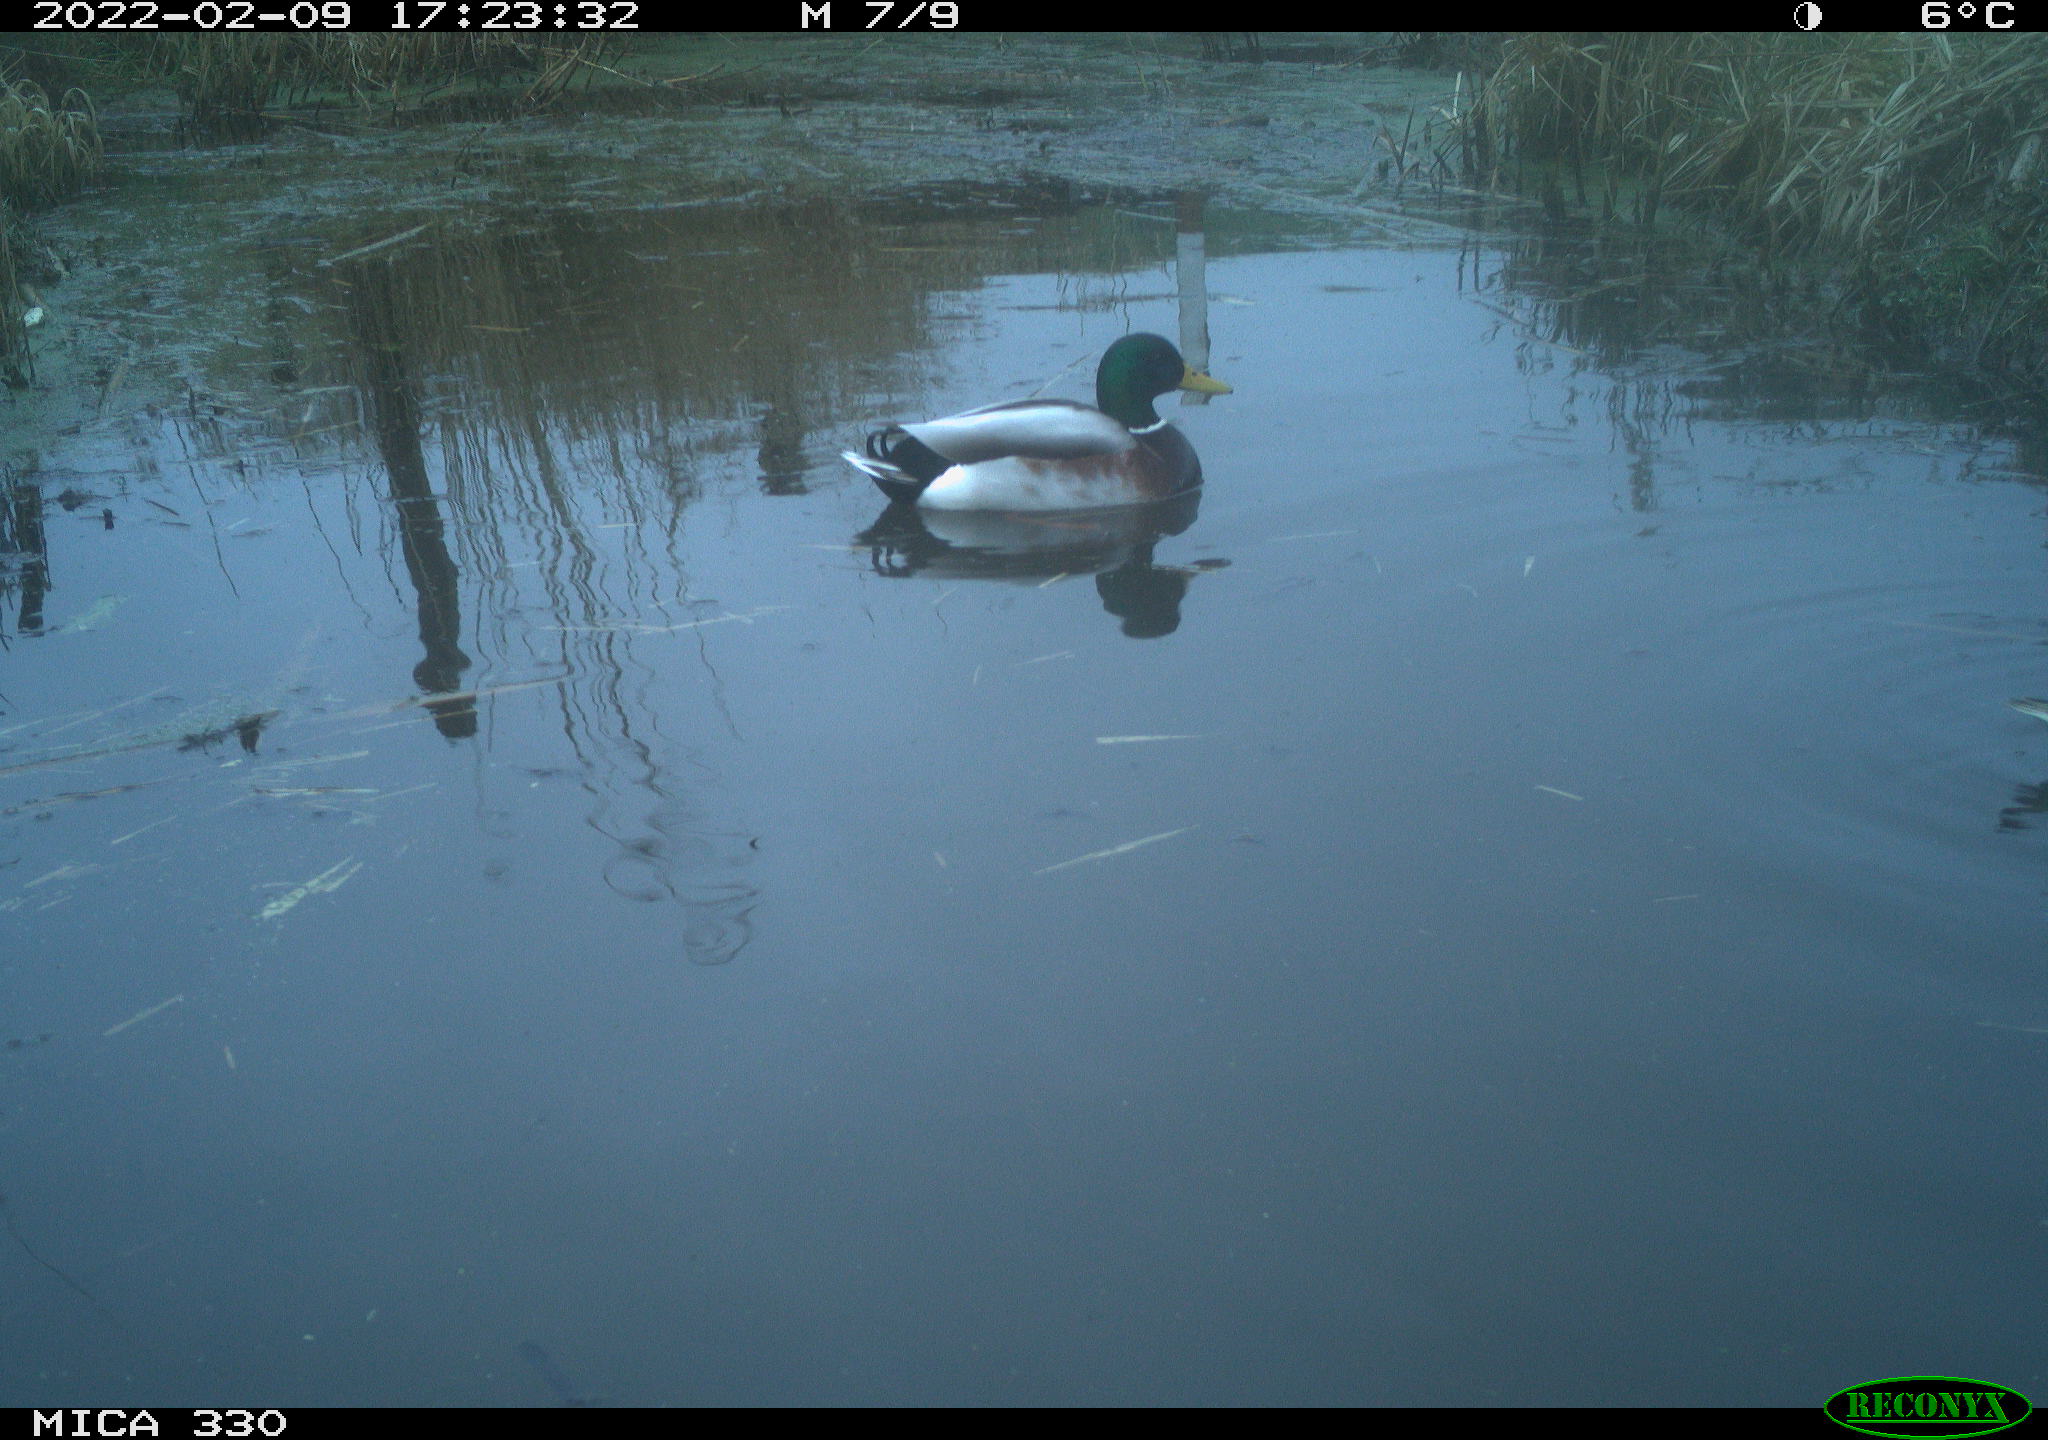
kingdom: Animalia
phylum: Chordata
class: Aves
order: Anseriformes
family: Anatidae
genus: Anas
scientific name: Anas platyrhynchos
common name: Mallard
